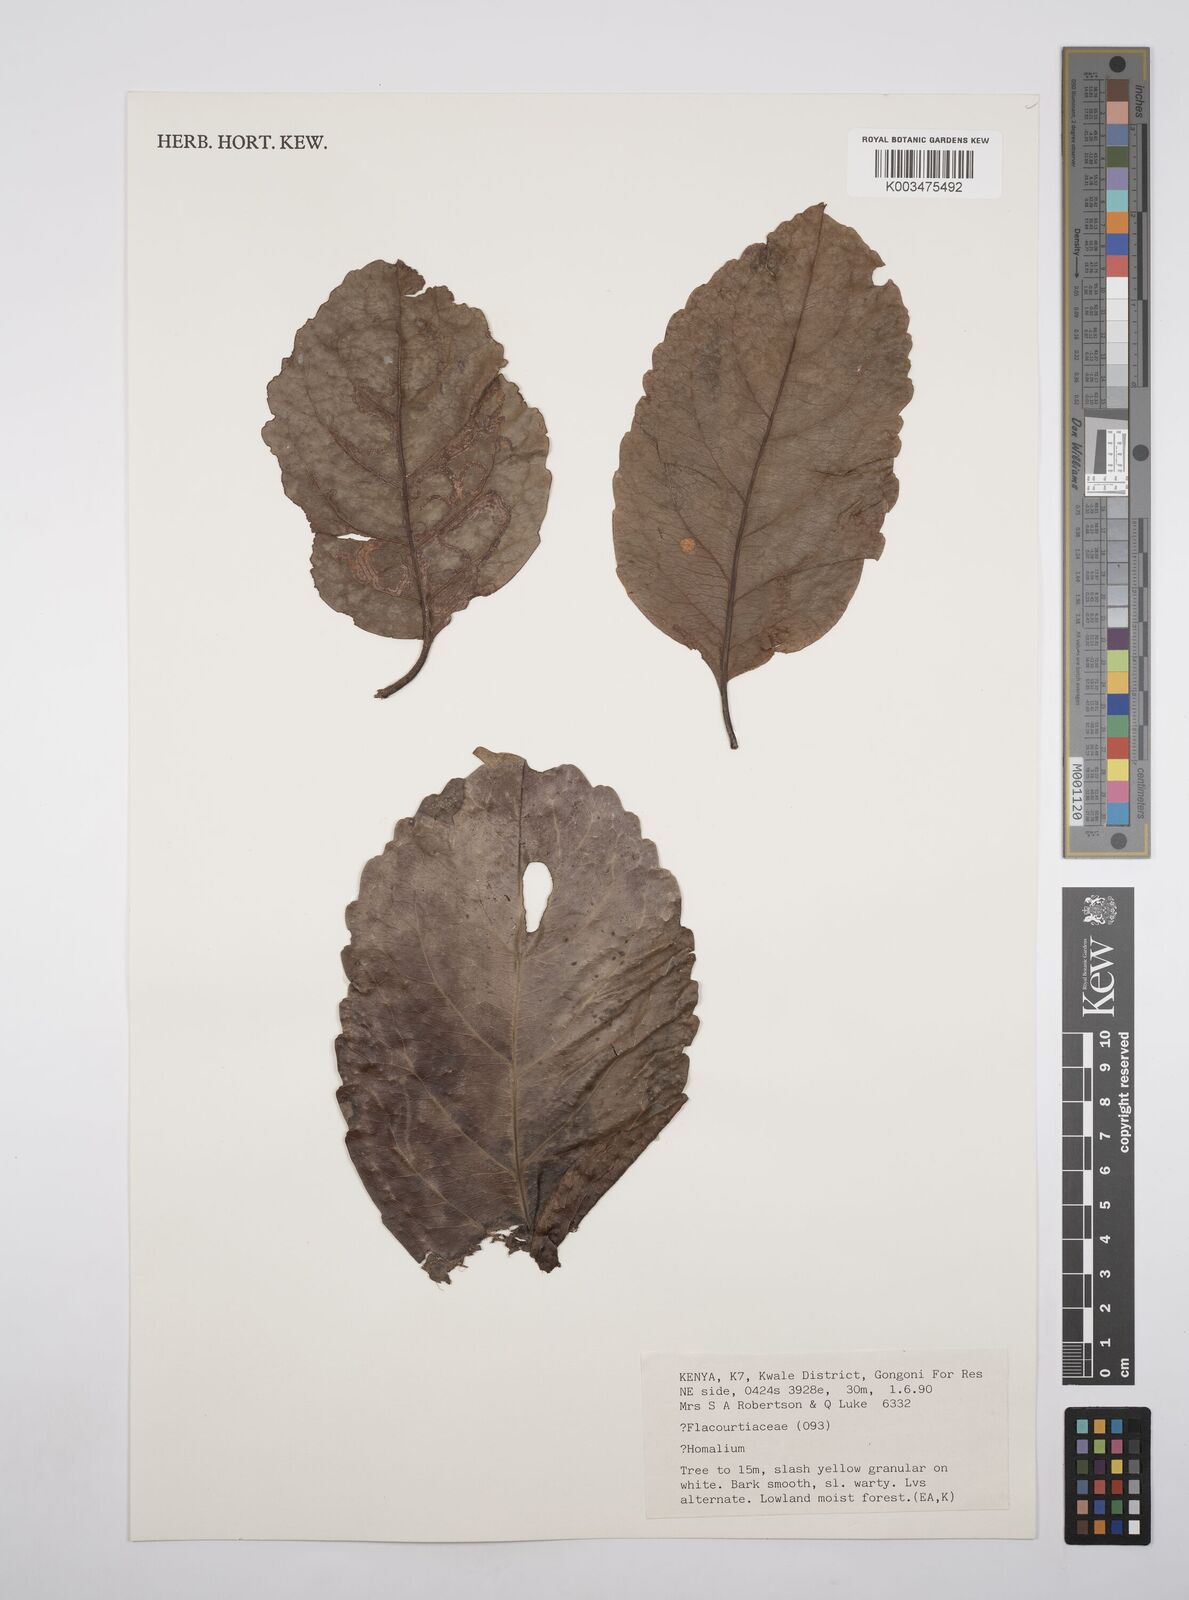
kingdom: Plantae
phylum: Tracheophyta
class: Magnoliopsida
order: Malpighiales
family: Salicaceae
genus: Homalium
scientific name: Homalium
